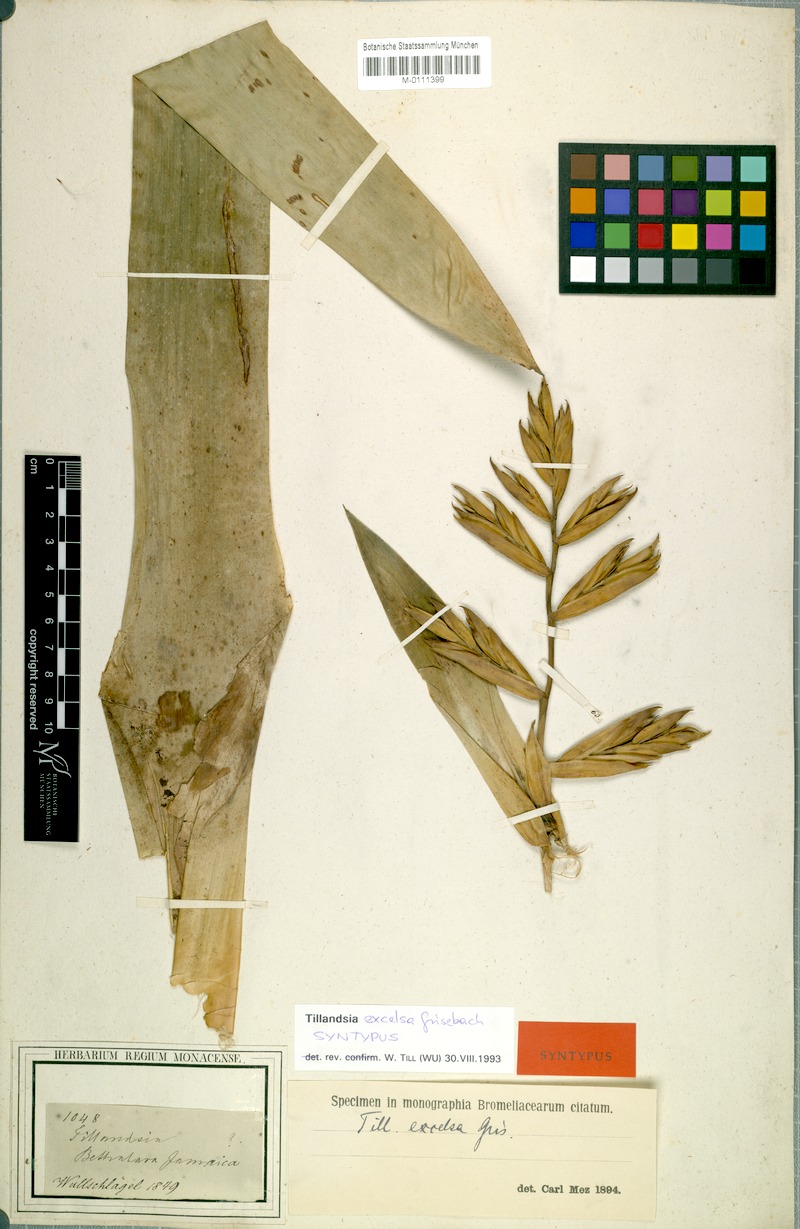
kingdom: Plantae
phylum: Tracheophyta
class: Liliopsida
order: Poales
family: Bromeliaceae
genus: Tillandsia
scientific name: Tillandsia excelsa
